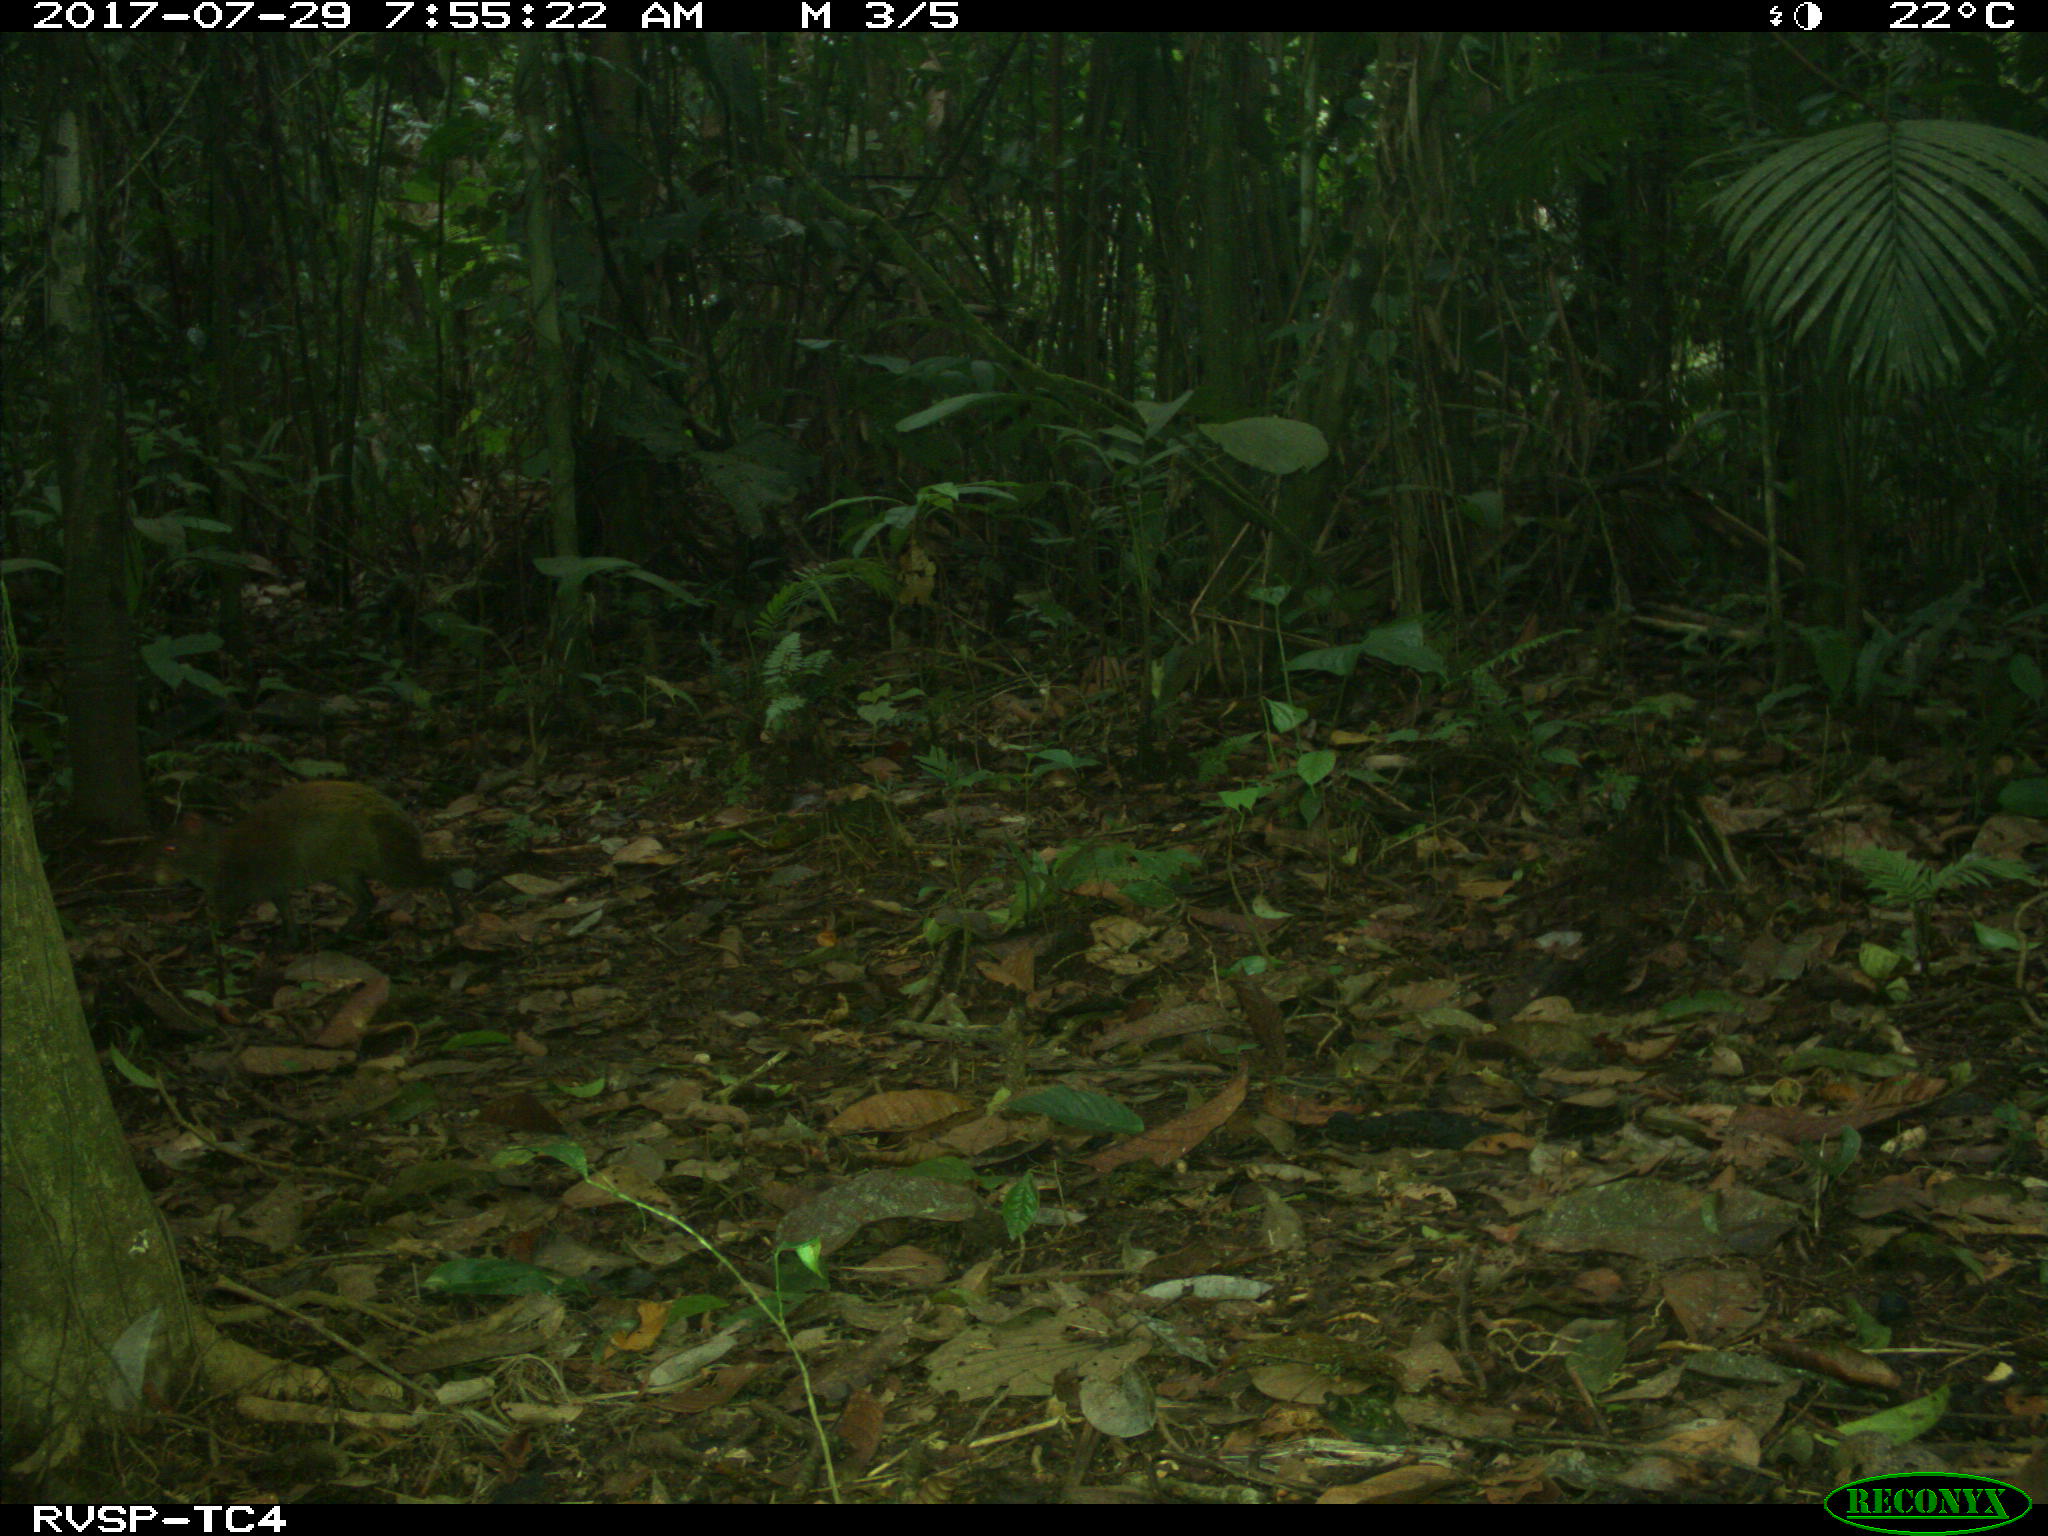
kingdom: Animalia
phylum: Chordata
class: Mammalia
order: Rodentia
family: Dasyproctidae
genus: Dasyprocta
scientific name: Dasyprocta punctata
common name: Central american agouti
